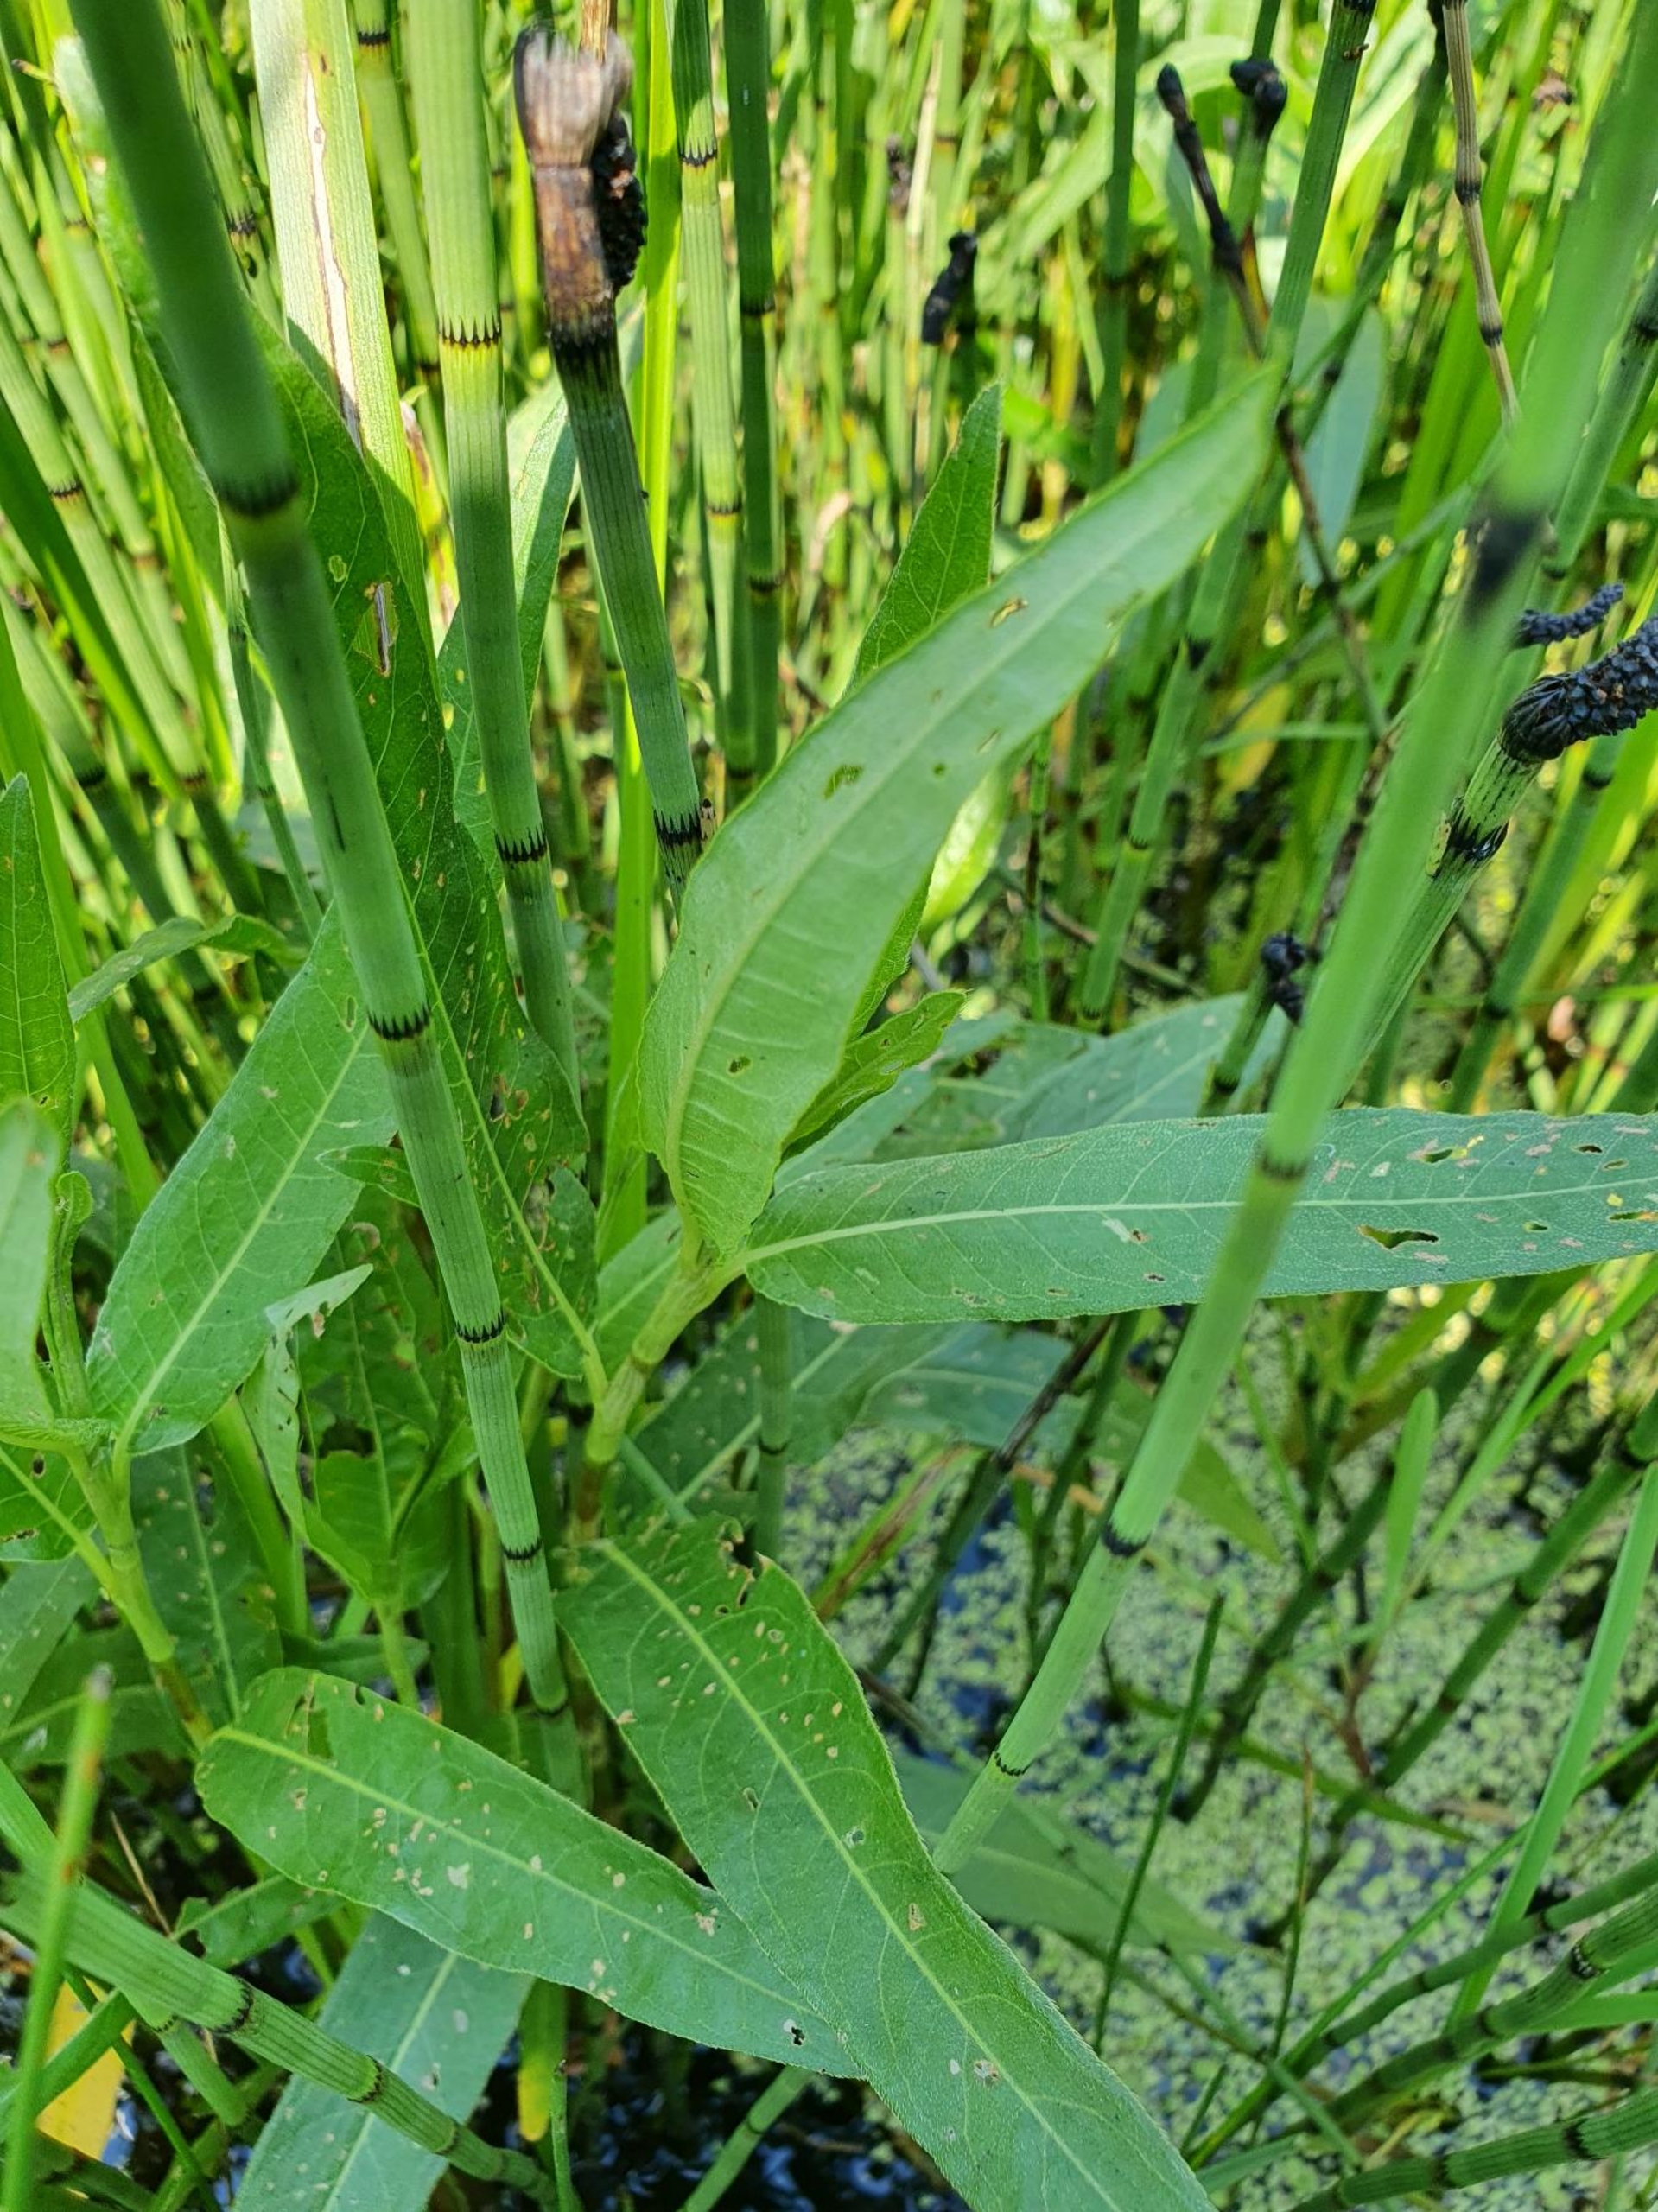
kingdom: Plantae
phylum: Tracheophyta
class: Magnoliopsida
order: Caryophyllales
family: Polygonaceae
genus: Persicaria
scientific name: Persicaria amphibia
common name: Vand-pileurt
